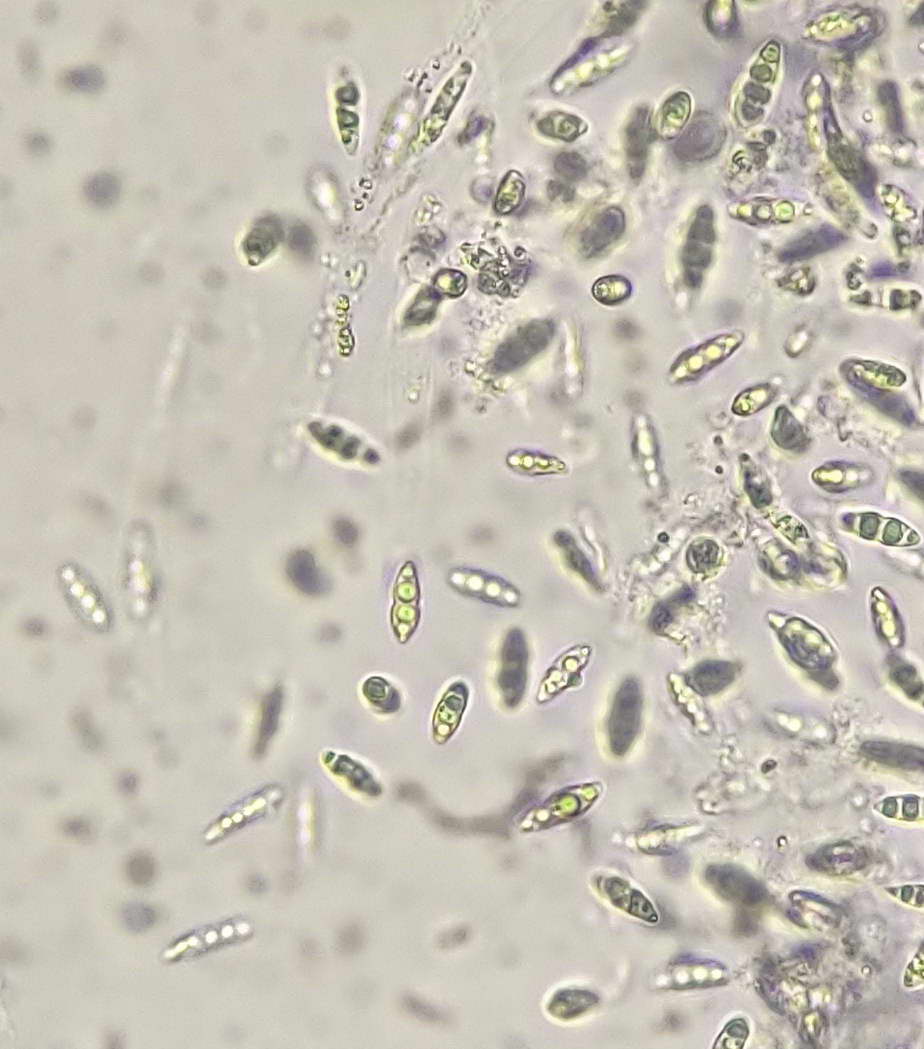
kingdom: Fungi
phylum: Ascomycota
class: Sordariomycetes
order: Diaporthales
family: Valsaceae
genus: Amphiporthe
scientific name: Amphiporthe tiliae
